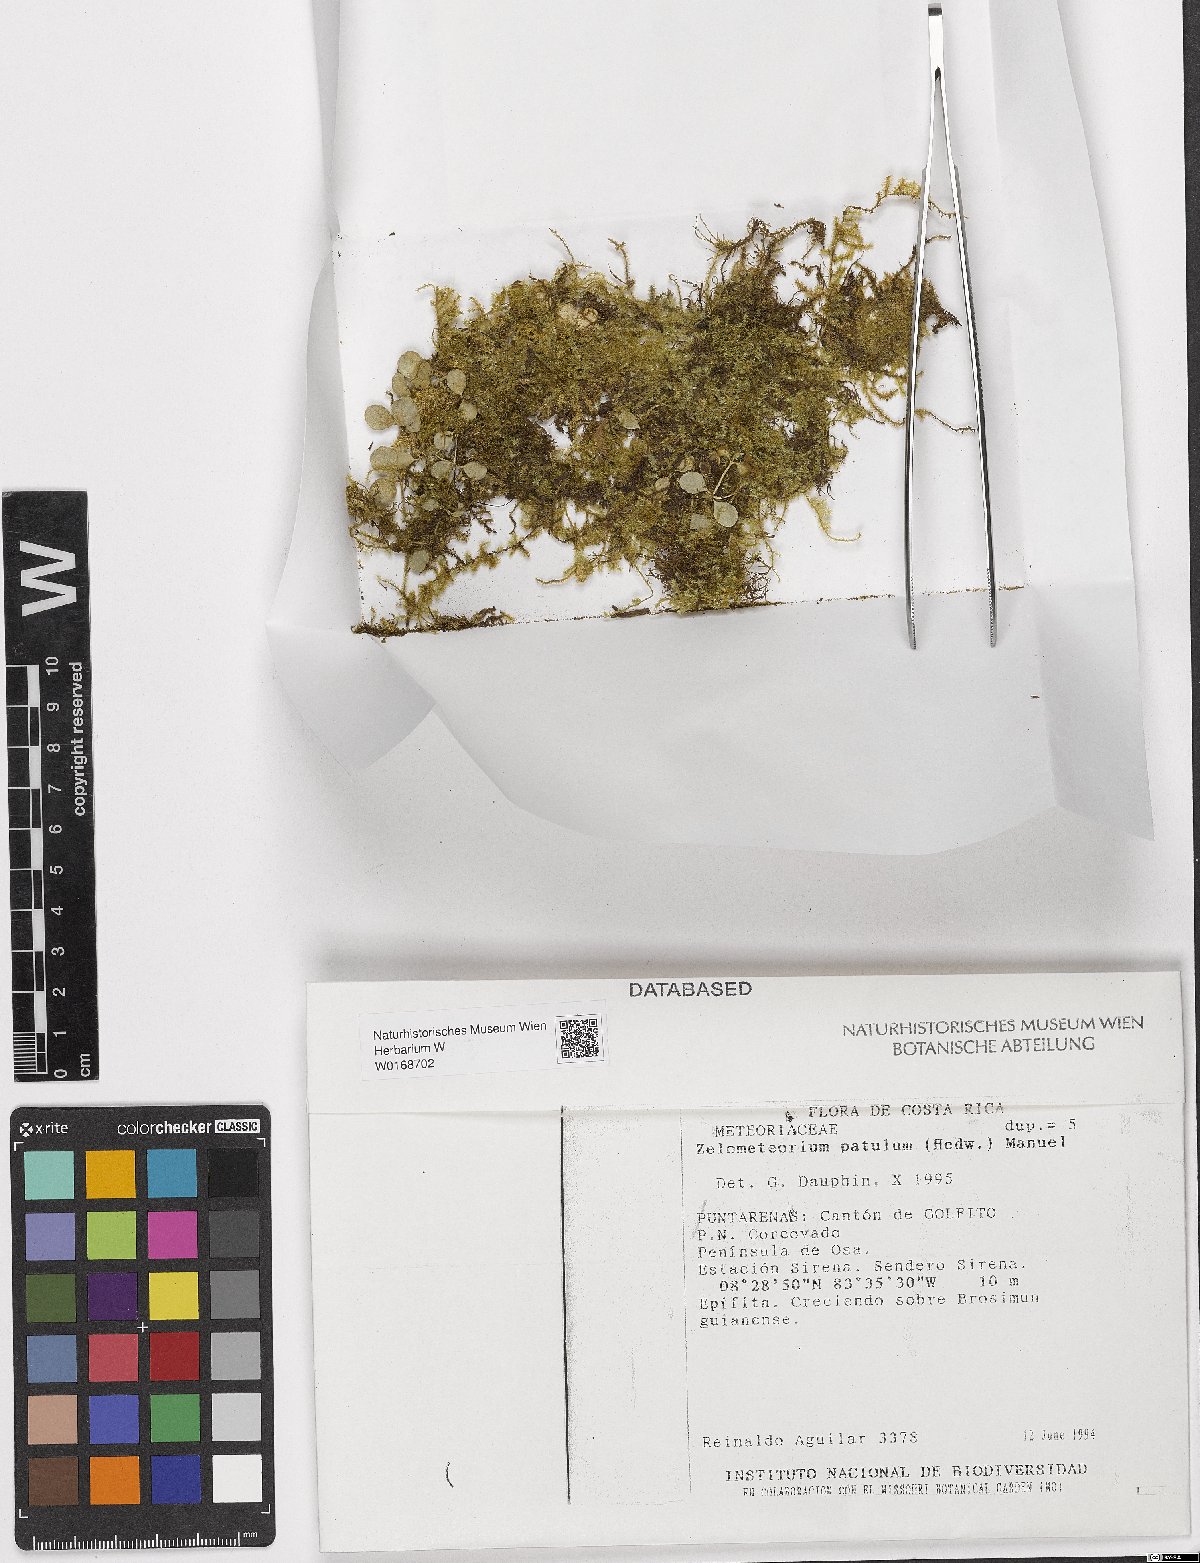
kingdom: Plantae
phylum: Bryophyta
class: Bryopsida
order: Hypnales
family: Brachytheciaceae
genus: Zelometeorium
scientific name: Zelometeorium patulum
